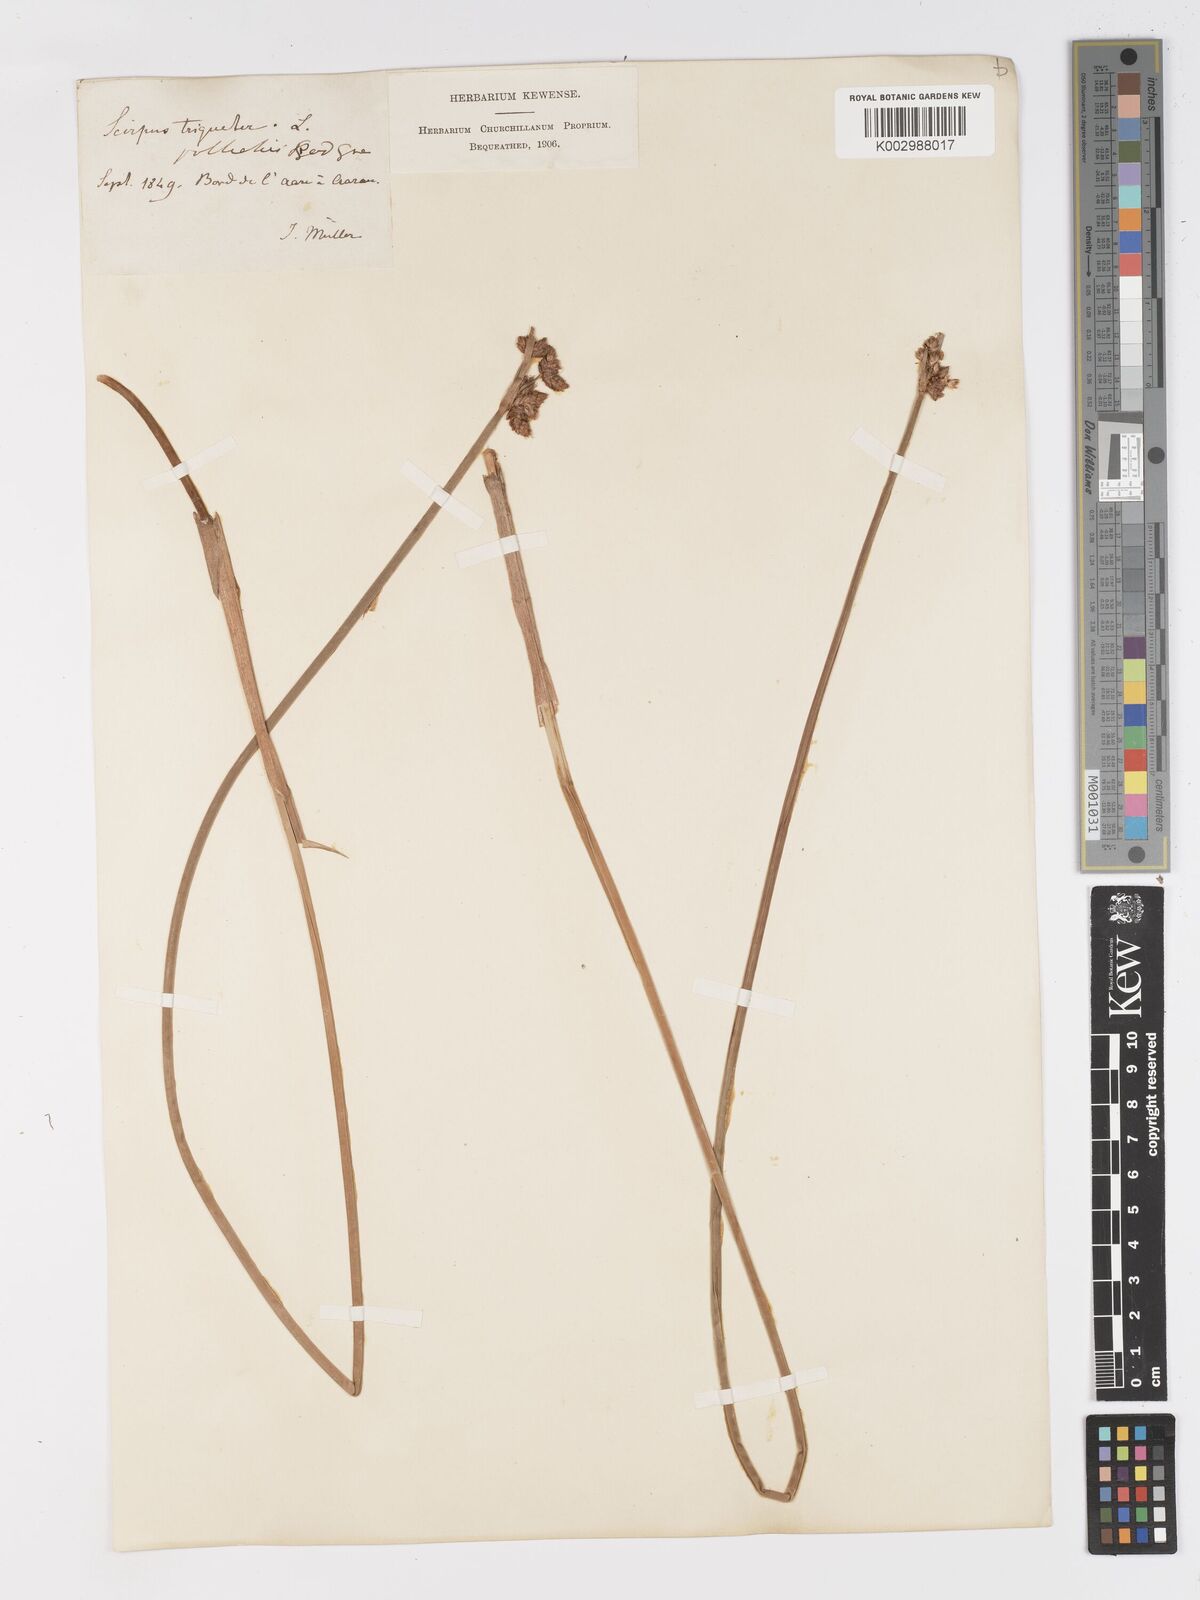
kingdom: Plantae
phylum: Tracheophyta
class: Liliopsida
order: Poales
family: Cyperaceae
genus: Schoenoplectus
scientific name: Schoenoplectus triqueter
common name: Triangular club-rush
